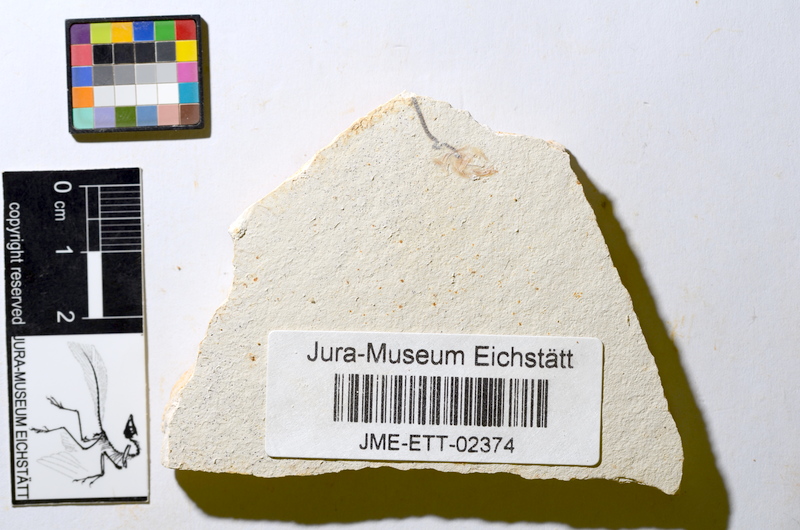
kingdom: Animalia
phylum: Chordata
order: Salmoniformes
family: Orthogonikleithridae
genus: Orthogonikleithrus
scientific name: Orthogonikleithrus hoelli
